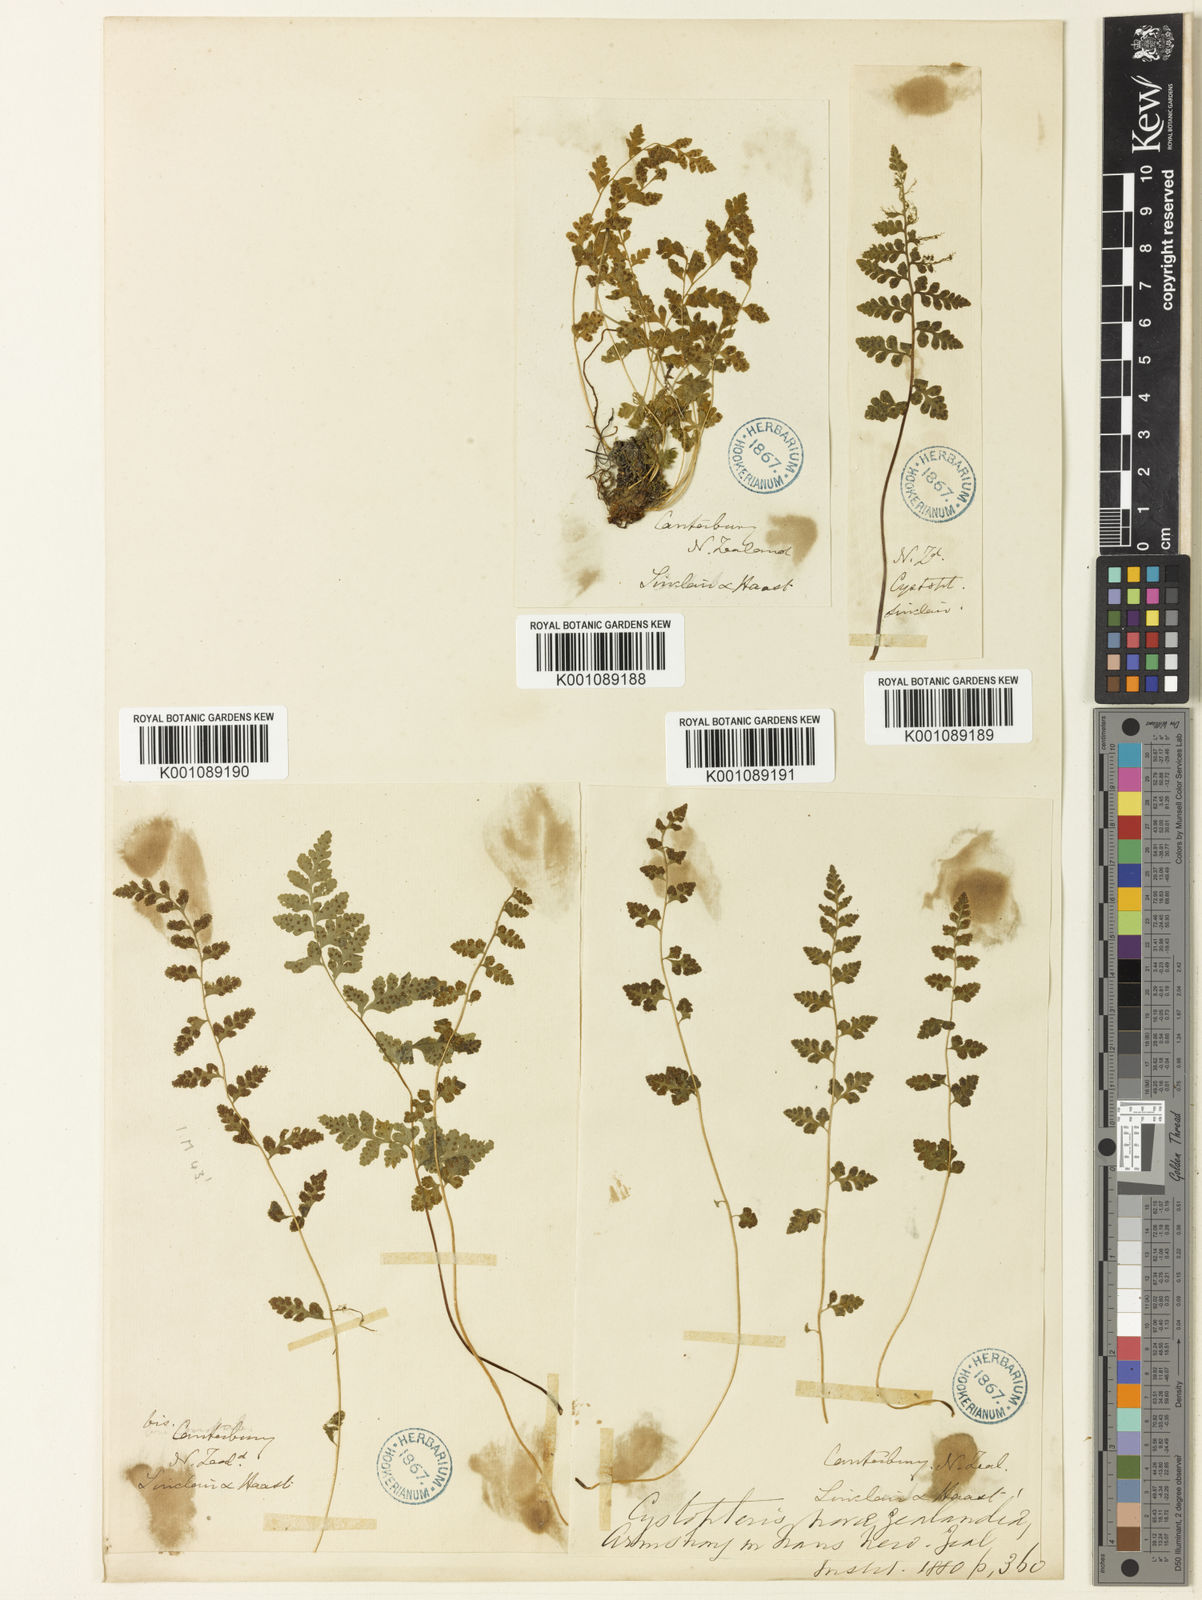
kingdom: Plantae
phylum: Tracheophyta
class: Polypodiopsida
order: Polypodiales
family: Cystopteridaceae
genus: Cystopteris
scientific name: Cystopteris fragilis
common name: Brittle bladder fern
